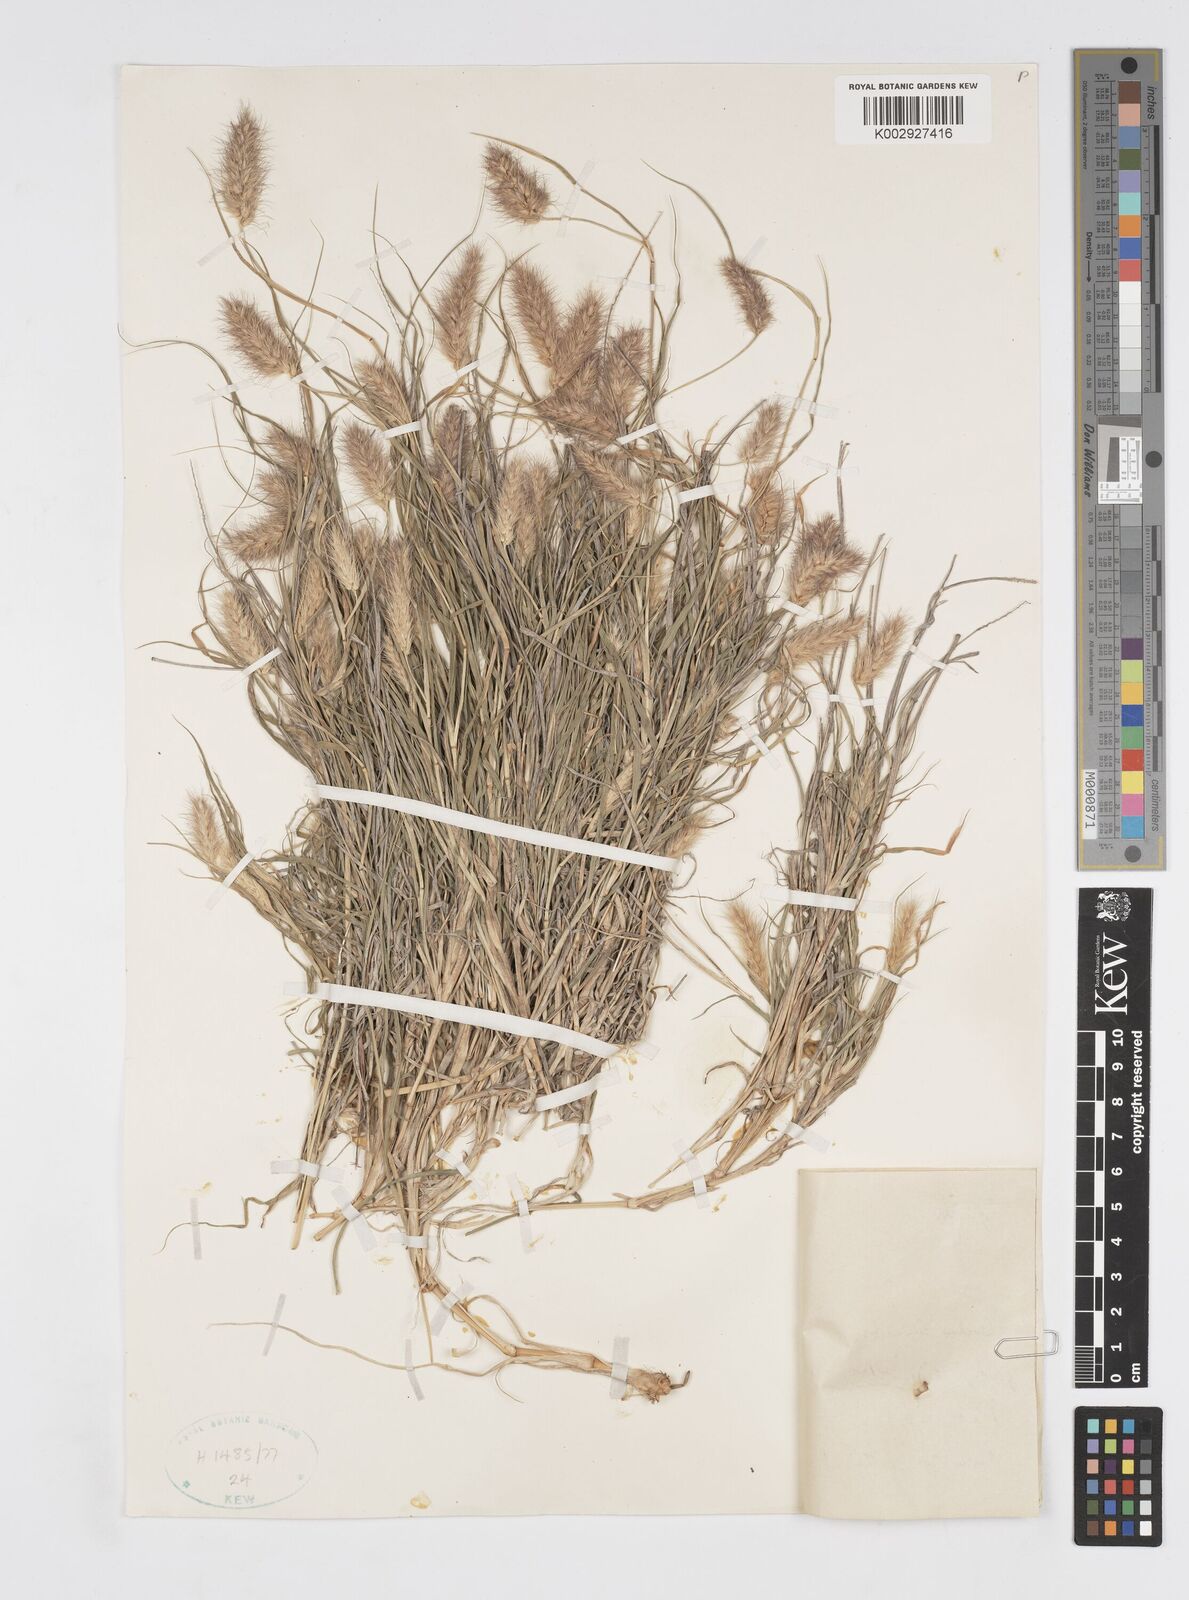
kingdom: Plantae
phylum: Tracheophyta
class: Liliopsida
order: Poales
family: Poaceae
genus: Cenchrus
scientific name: Cenchrus ciliaris
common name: Buffelgrass
